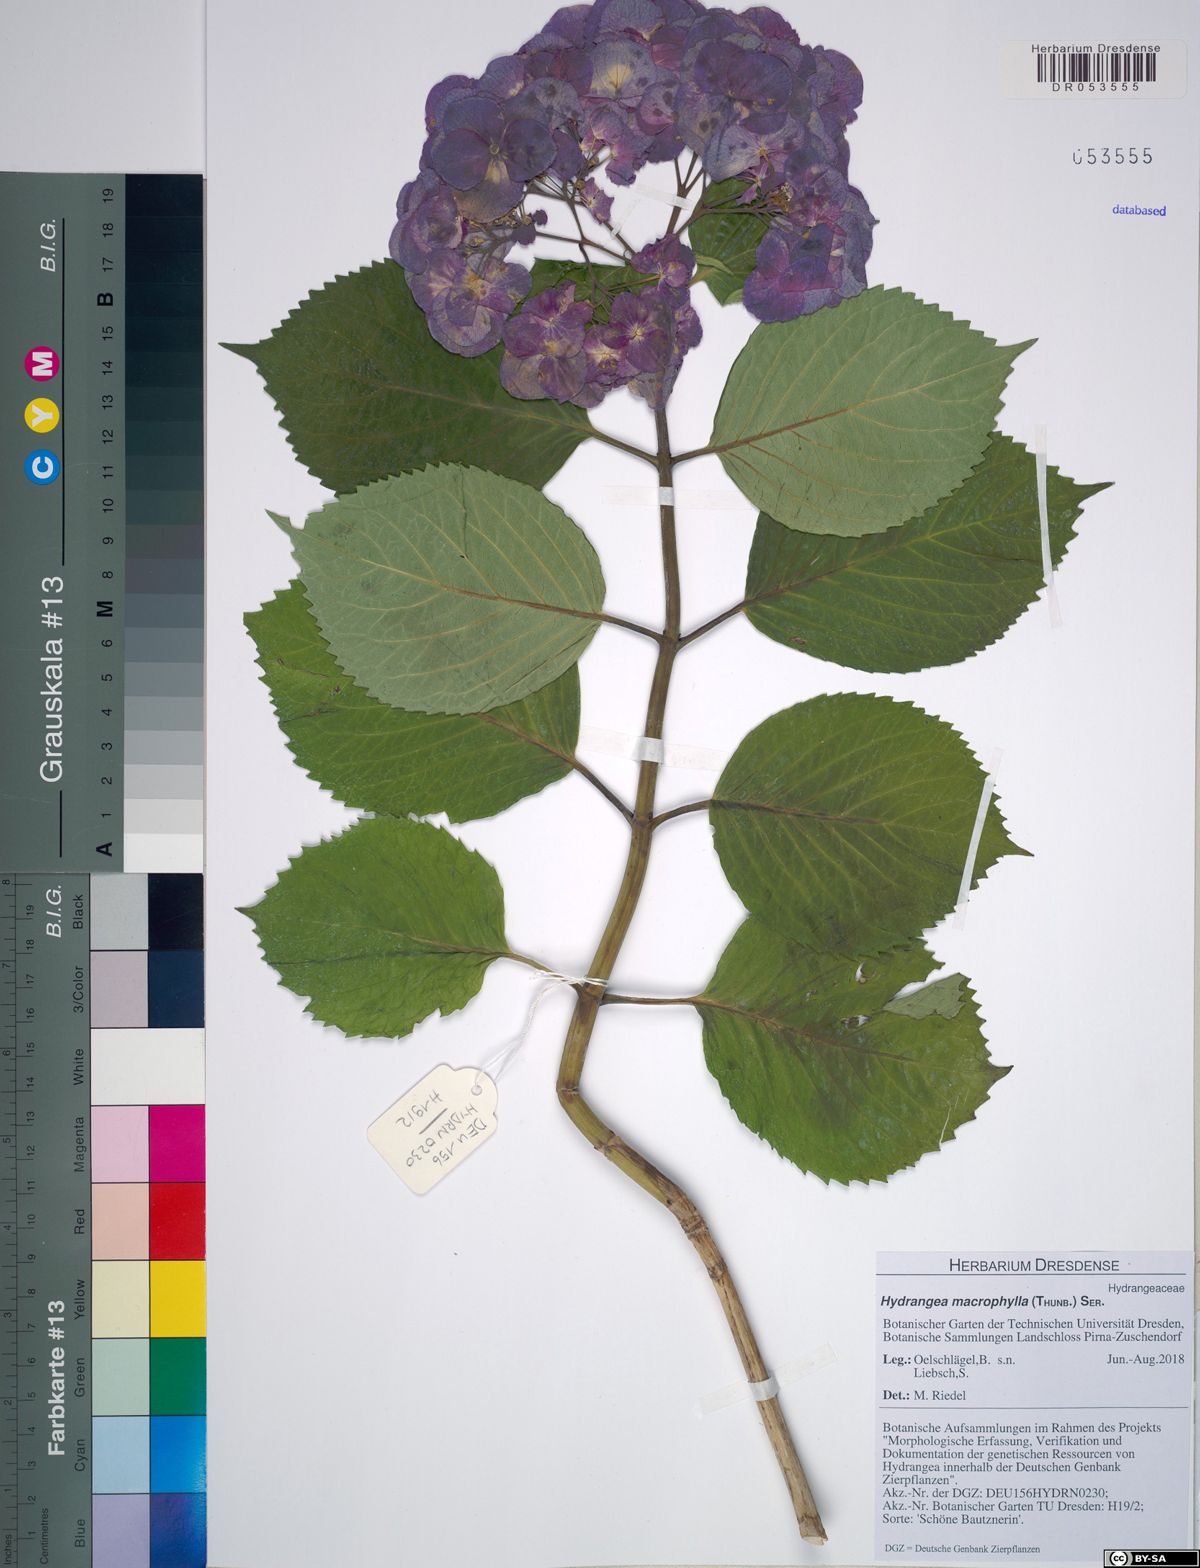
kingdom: Plantae
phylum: Tracheophyta
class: Magnoliopsida
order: Cornales
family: Hydrangeaceae
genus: Hydrangea
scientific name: Hydrangea macrophylla
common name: Hydrangea
